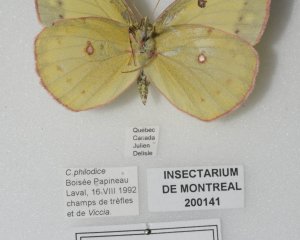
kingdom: Animalia
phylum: Arthropoda
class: Insecta
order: Lepidoptera
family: Pieridae
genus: Colias
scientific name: Colias philodice
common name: Clouded Sulphur
